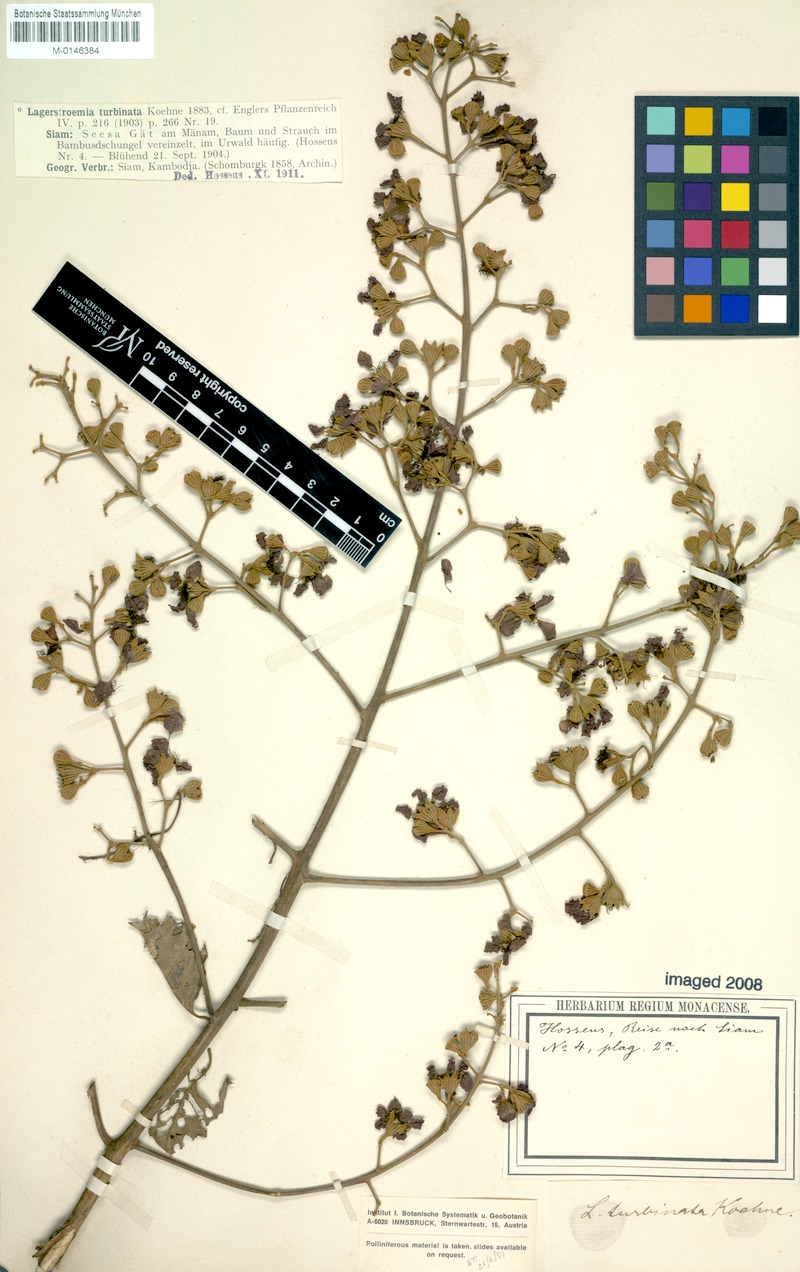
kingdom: Plantae
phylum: Tracheophyta
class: Magnoliopsida
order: Myrtales
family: Lythraceae
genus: Lagerstroemia
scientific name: Lagerstroemia floribunda
